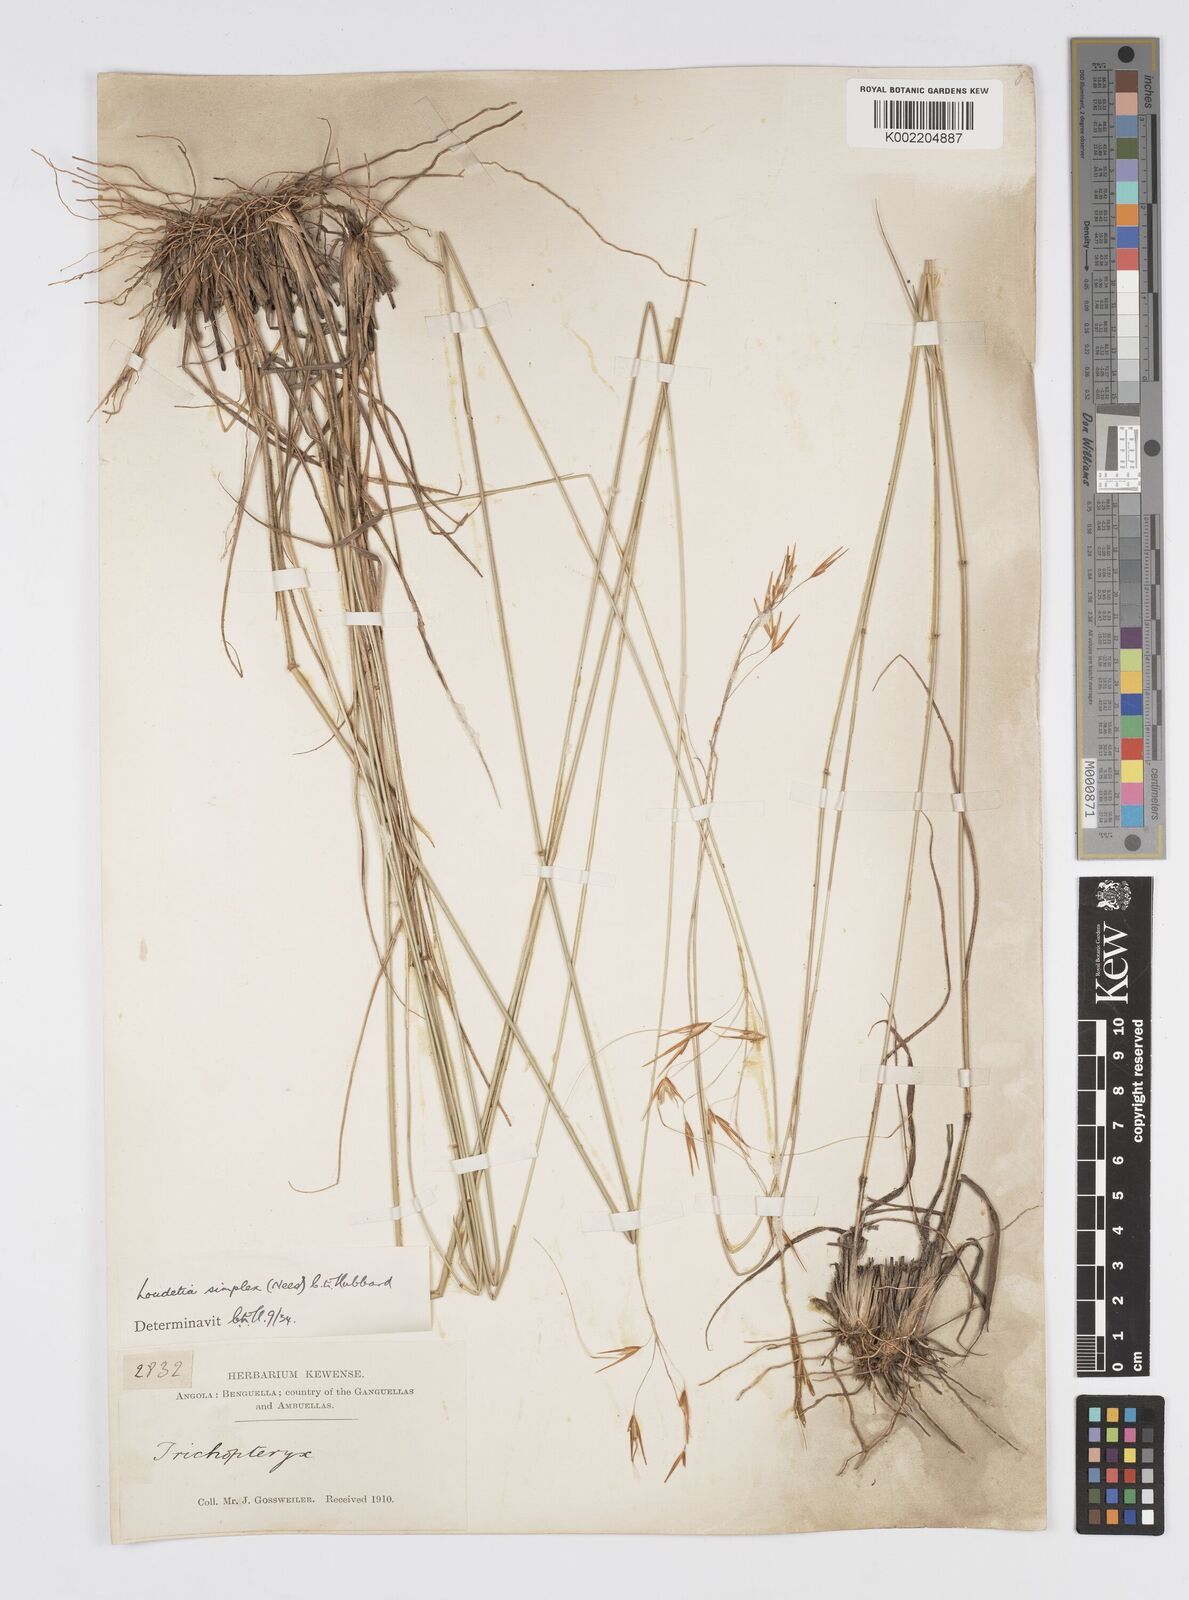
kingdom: Plantae
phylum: Tracheophyta
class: Liliopsida
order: Poales
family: Poaceae
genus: Loudetia
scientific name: Loudetia simplex
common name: Common russet grass
